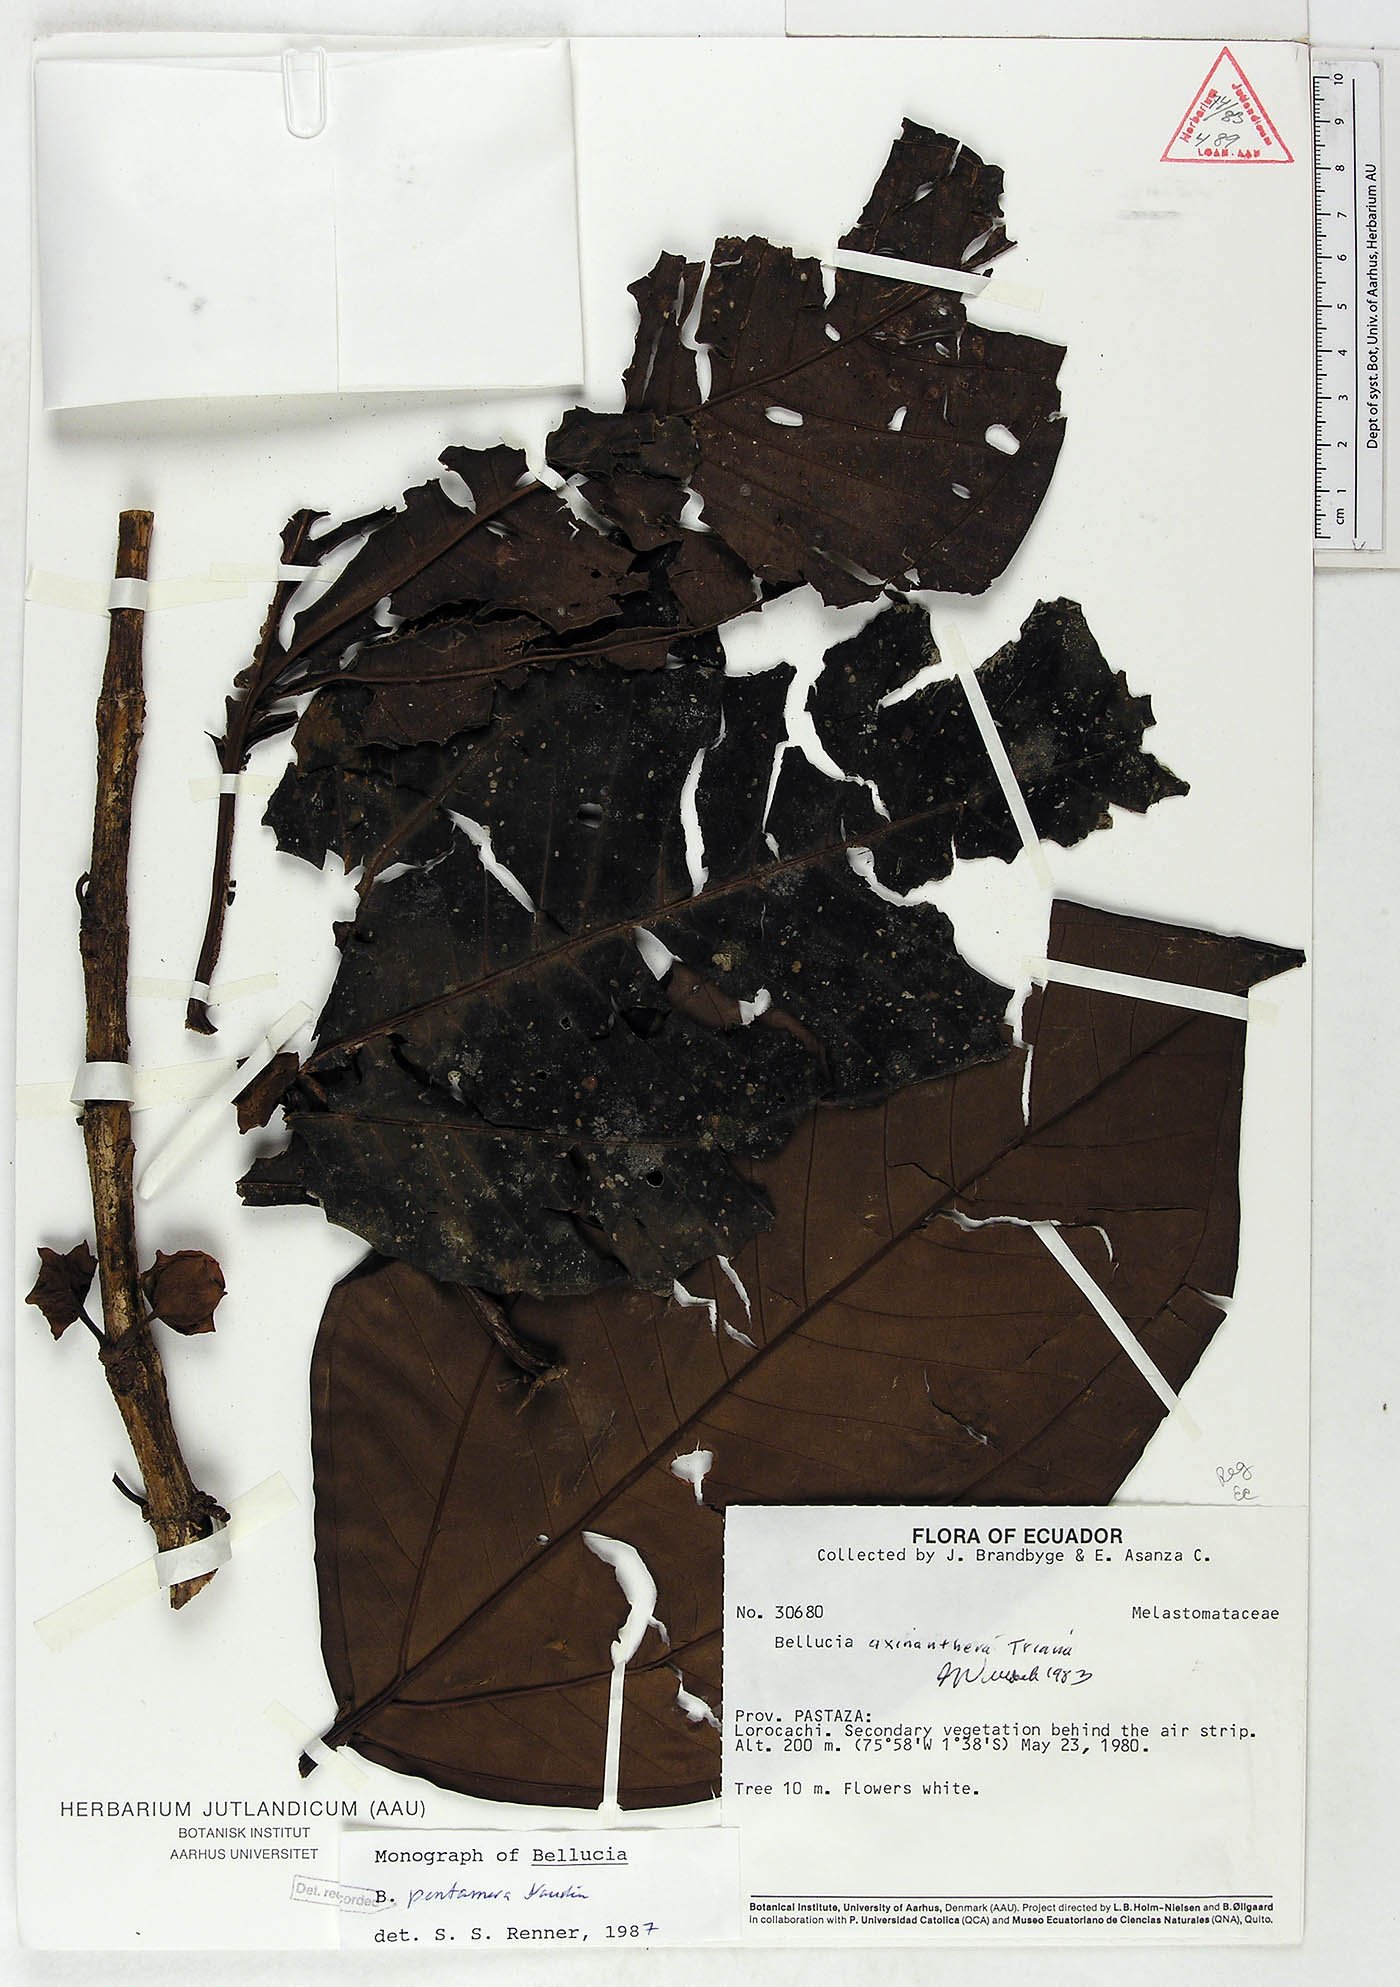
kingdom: Plantae
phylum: Tracheophyta
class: Magnoliopsida
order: Myrtales
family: Melastomataceae
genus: Bellucia
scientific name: Bellucia pentamera
